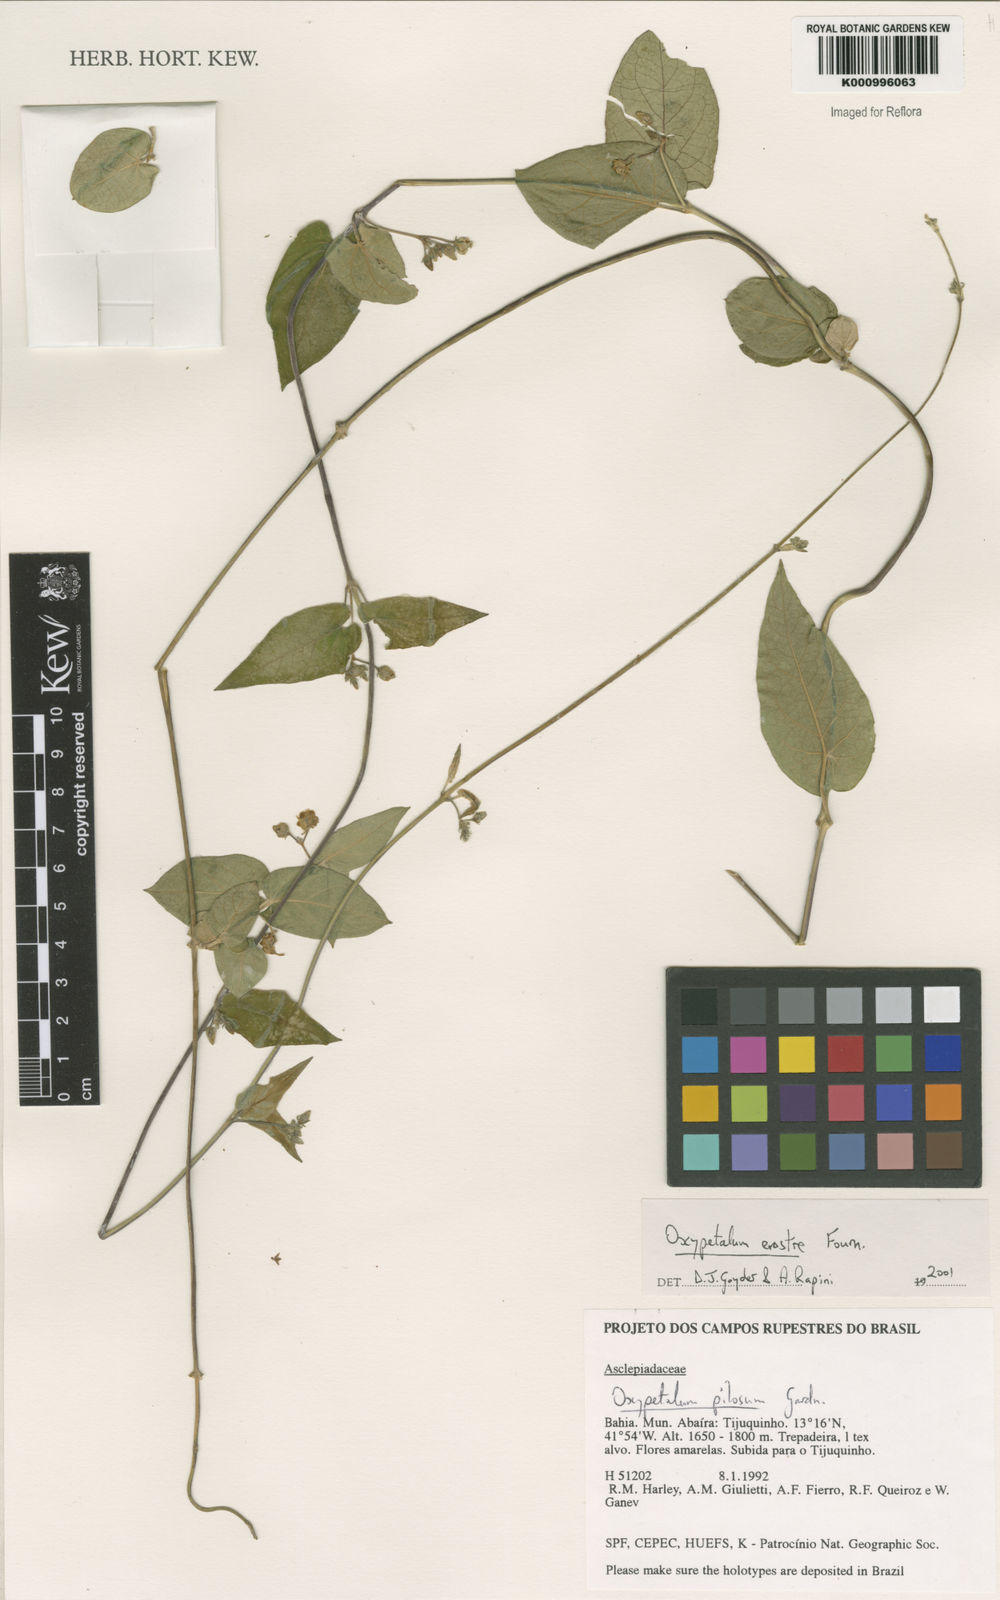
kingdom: Plantae
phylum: Tracheophyta
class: Magnoliopsida
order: Gentianales
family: Apocynaceae
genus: Oxypetalum
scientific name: Oxypetalum erostre
